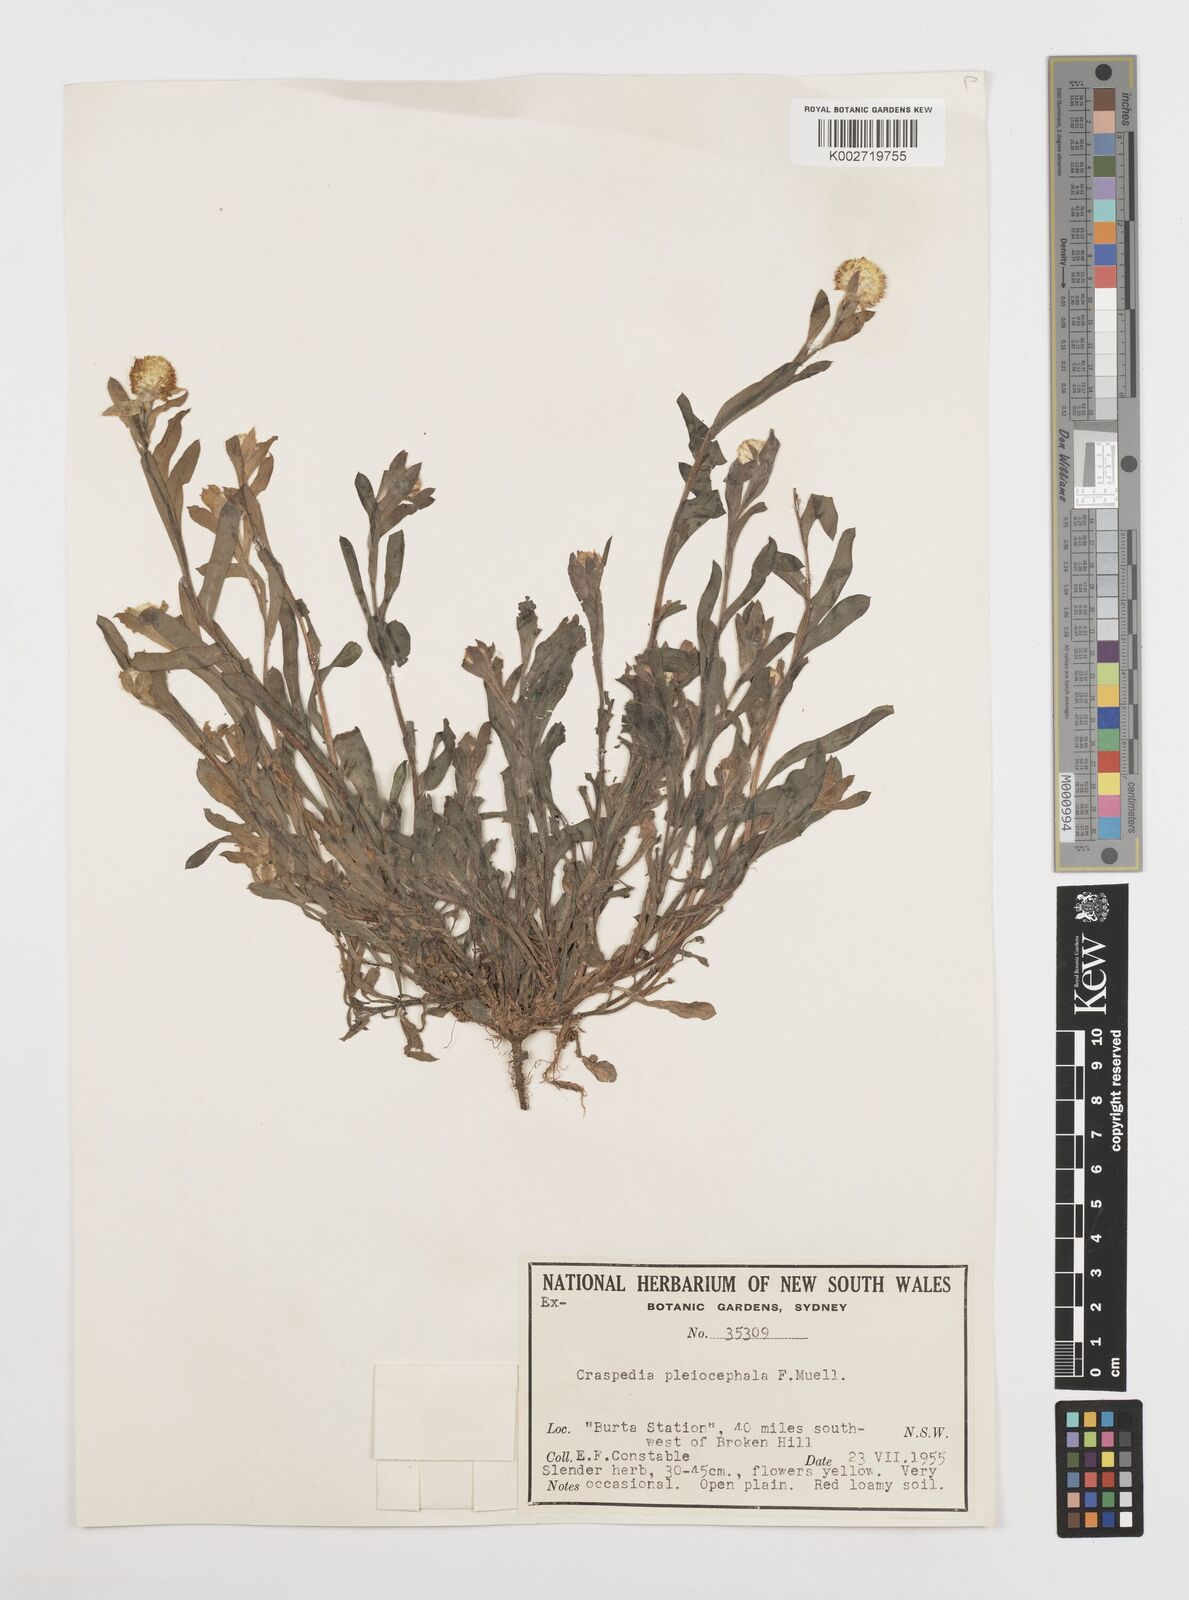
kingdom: Plantae
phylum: Tracheophyta
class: Magnoliopsida
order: Asterales
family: Asteraceae
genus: Pycnosorus
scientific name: Pycnosorus pleiocephalus
